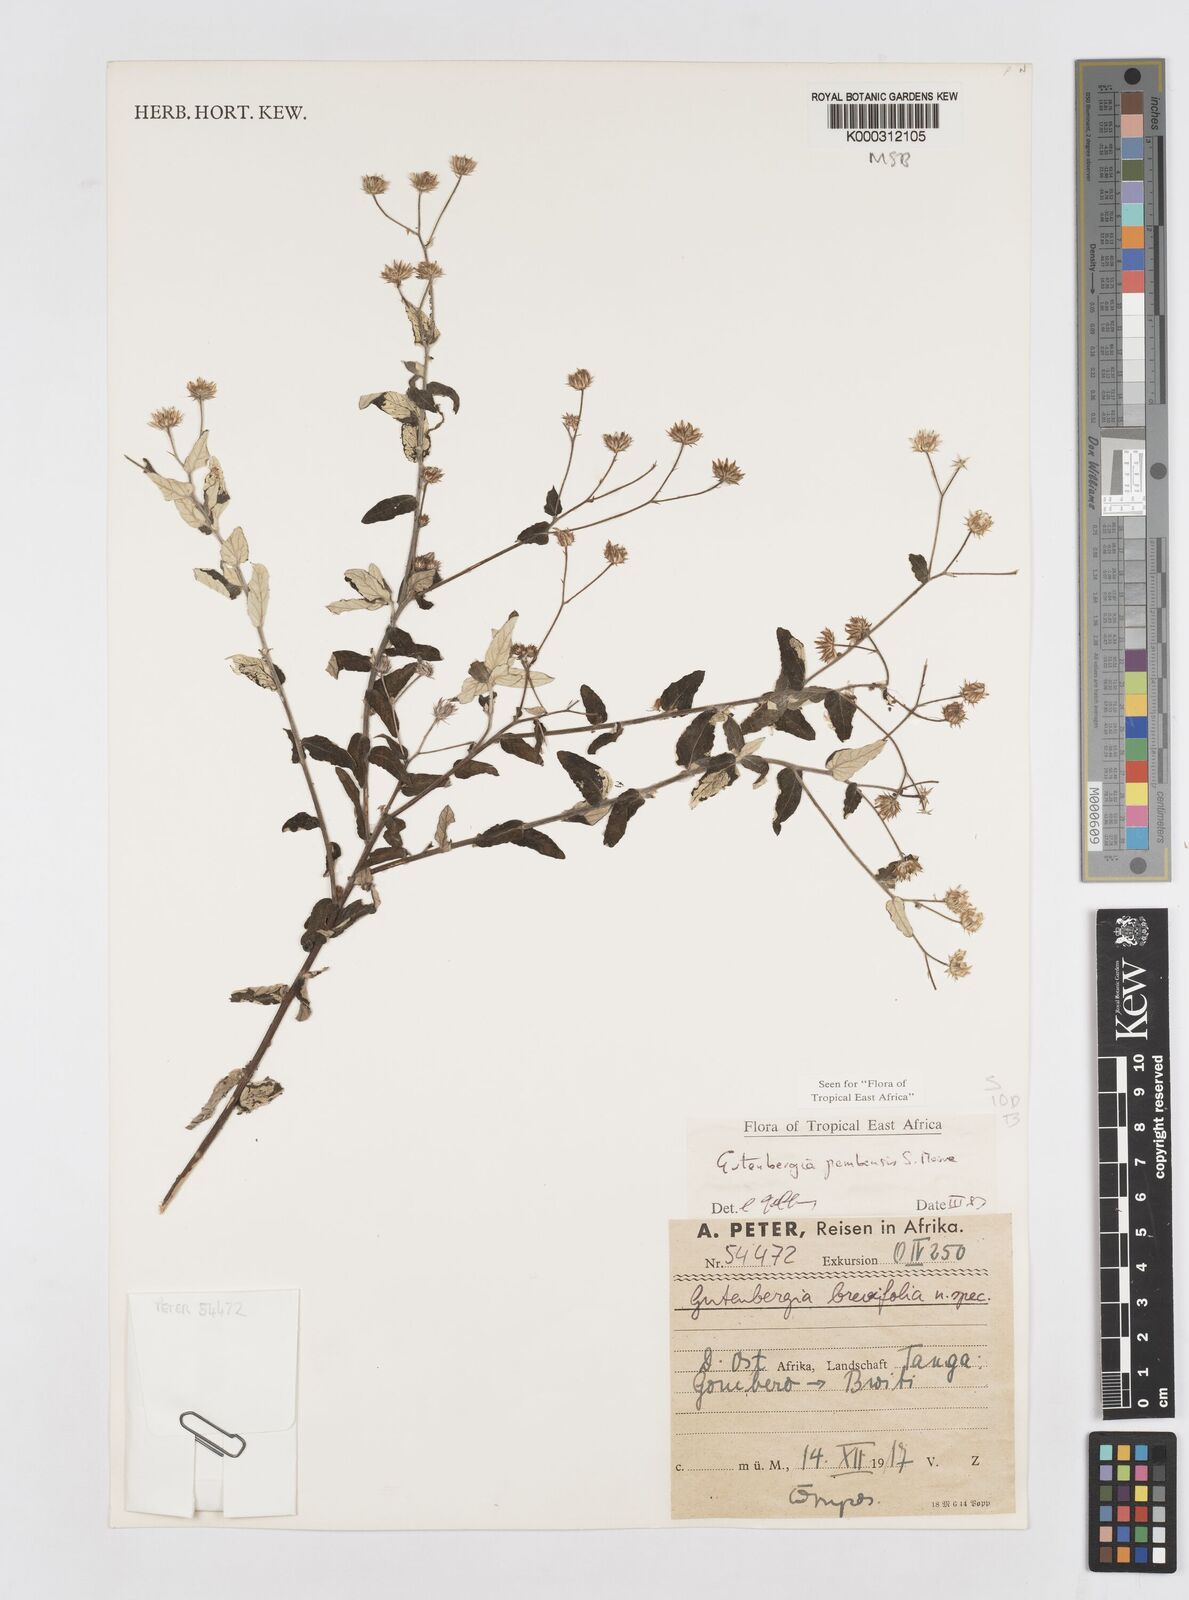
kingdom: Plantae
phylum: Tracheophyta
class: Magnoliopsida
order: Asterales
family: Asteraceae
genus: Gutenbergia
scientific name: Gutenbergia pembensis
